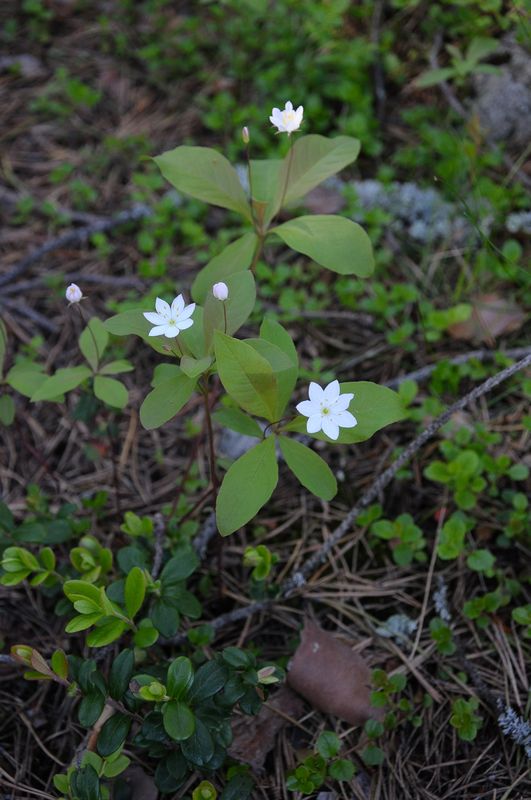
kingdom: Plantae
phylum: Tracheophyta
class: Magnoliopsida
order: Ericales
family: Primulaceae
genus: Lysimachia
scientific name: Lysimachia europaea
